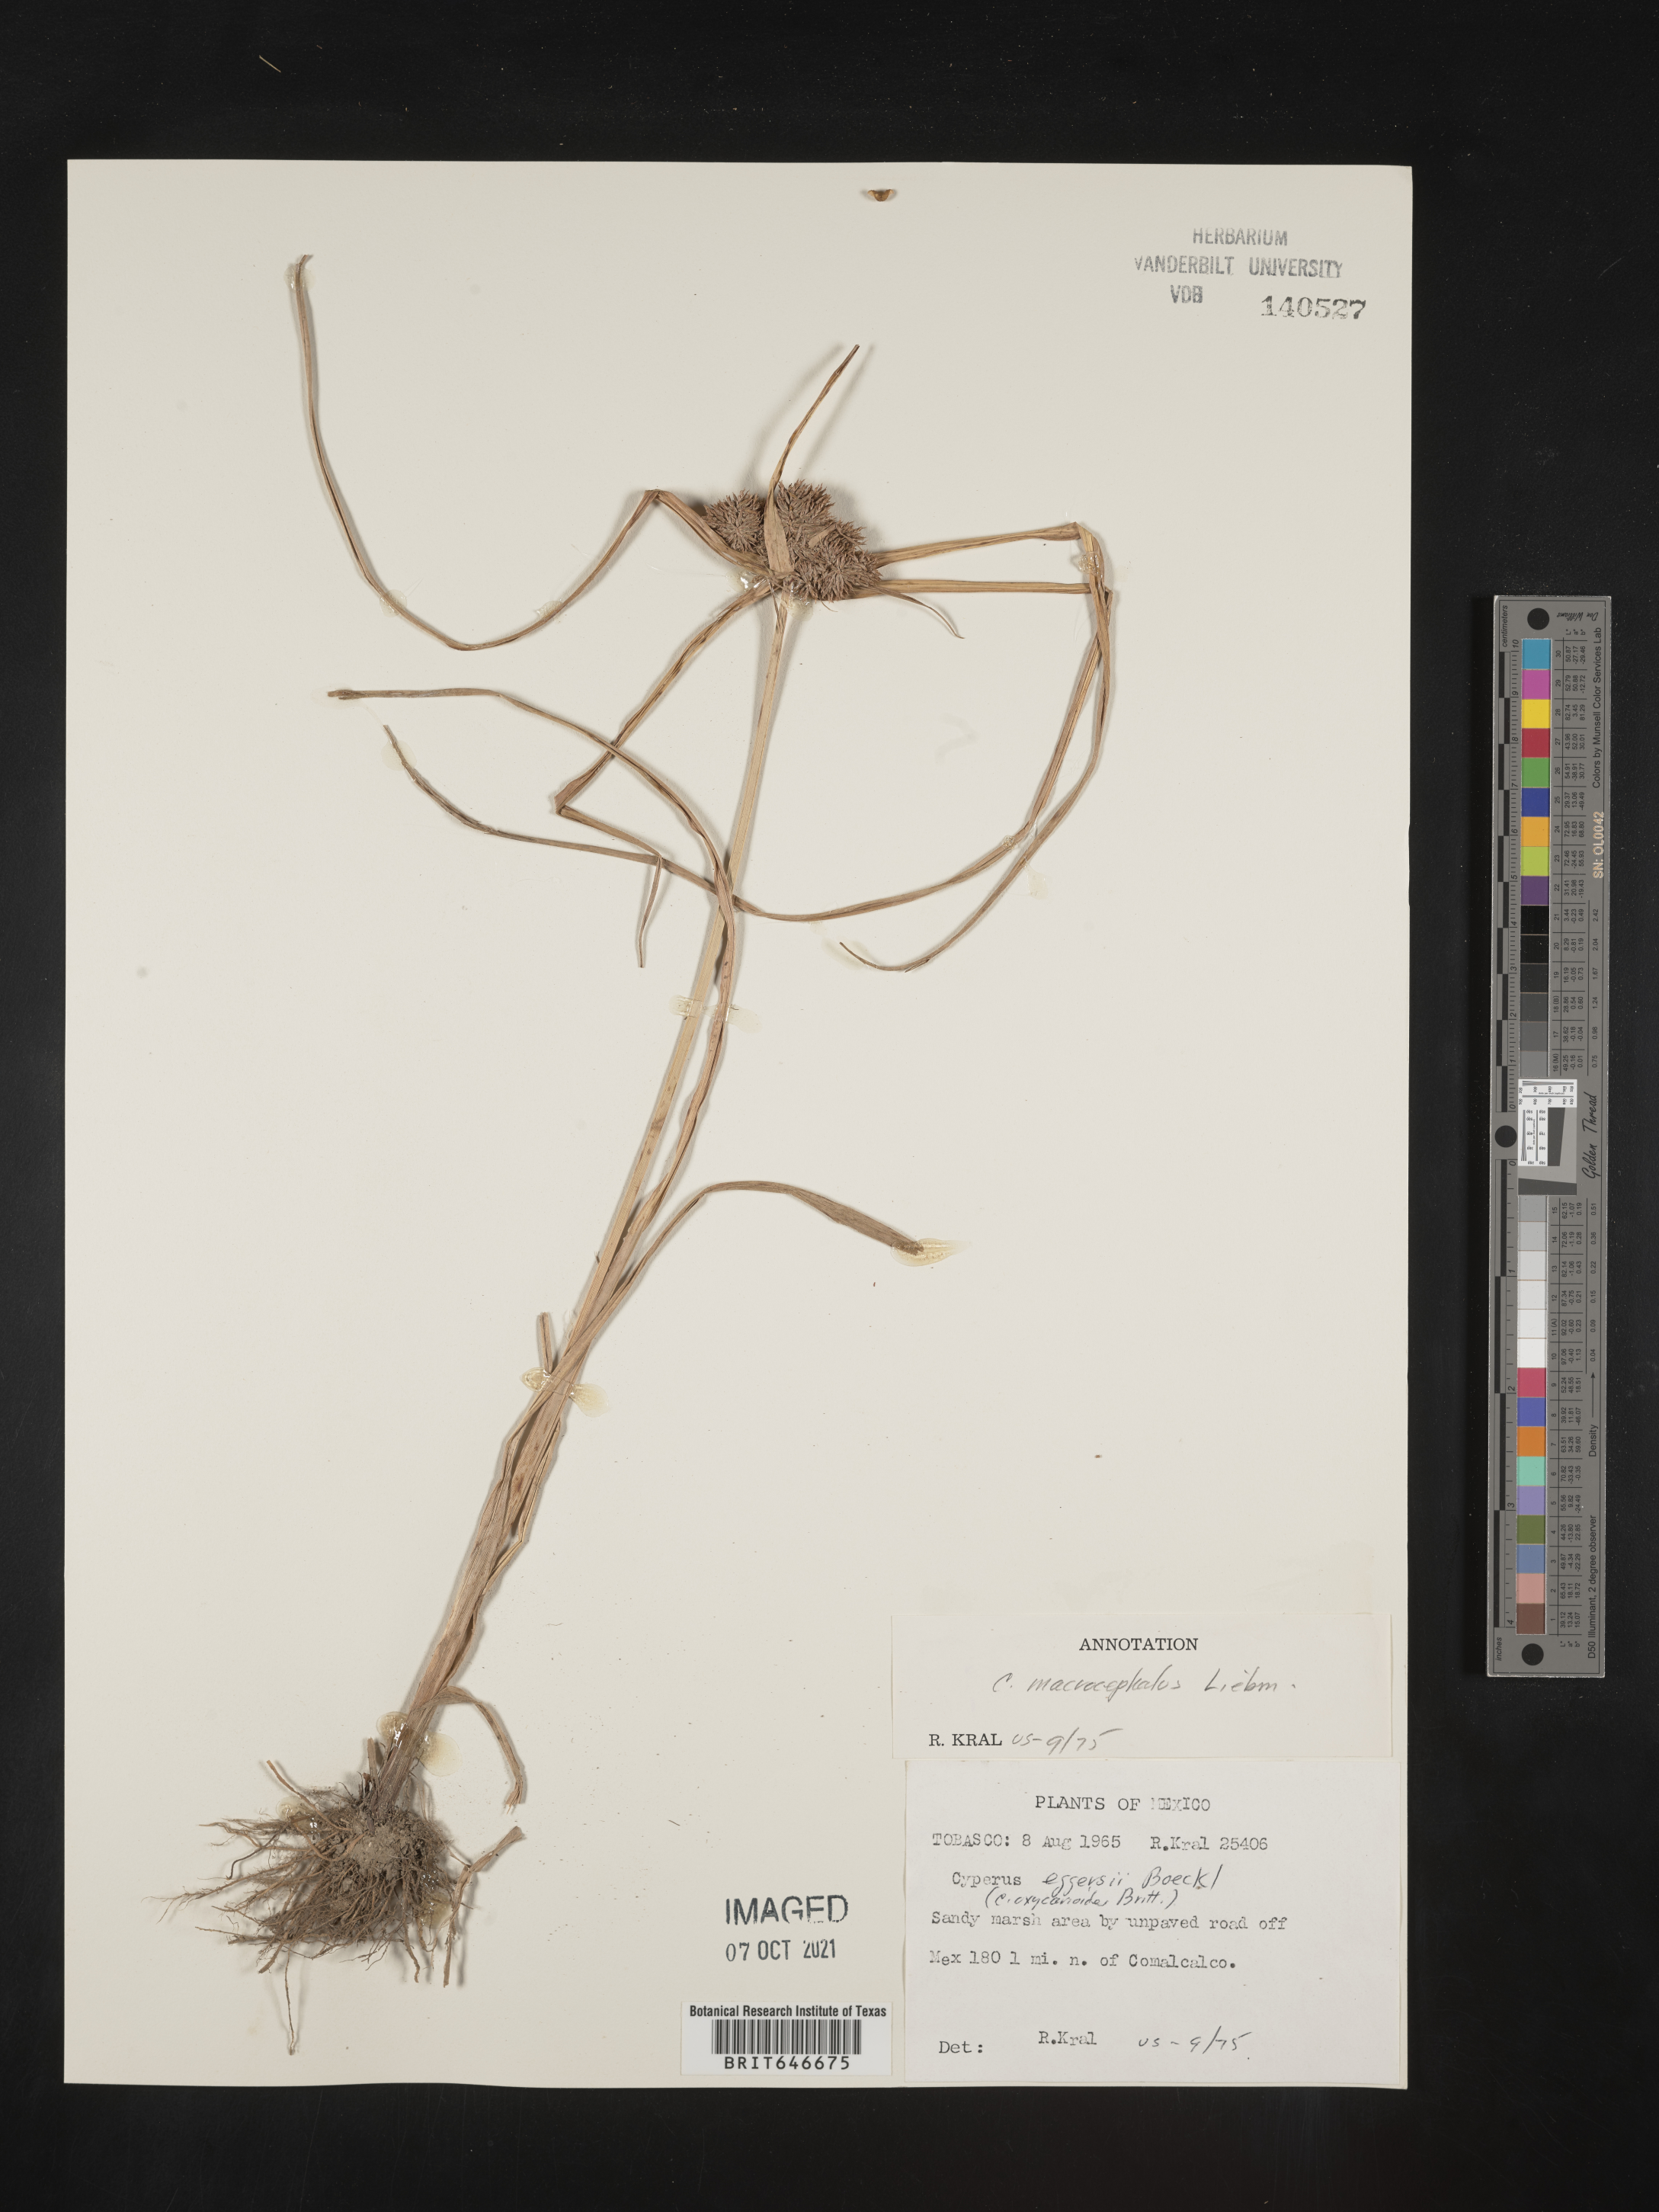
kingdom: Plantae
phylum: Tracheophyta
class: Liliopsida
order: Poales
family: Cyperaceae
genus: Cyperus
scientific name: Cyperus
